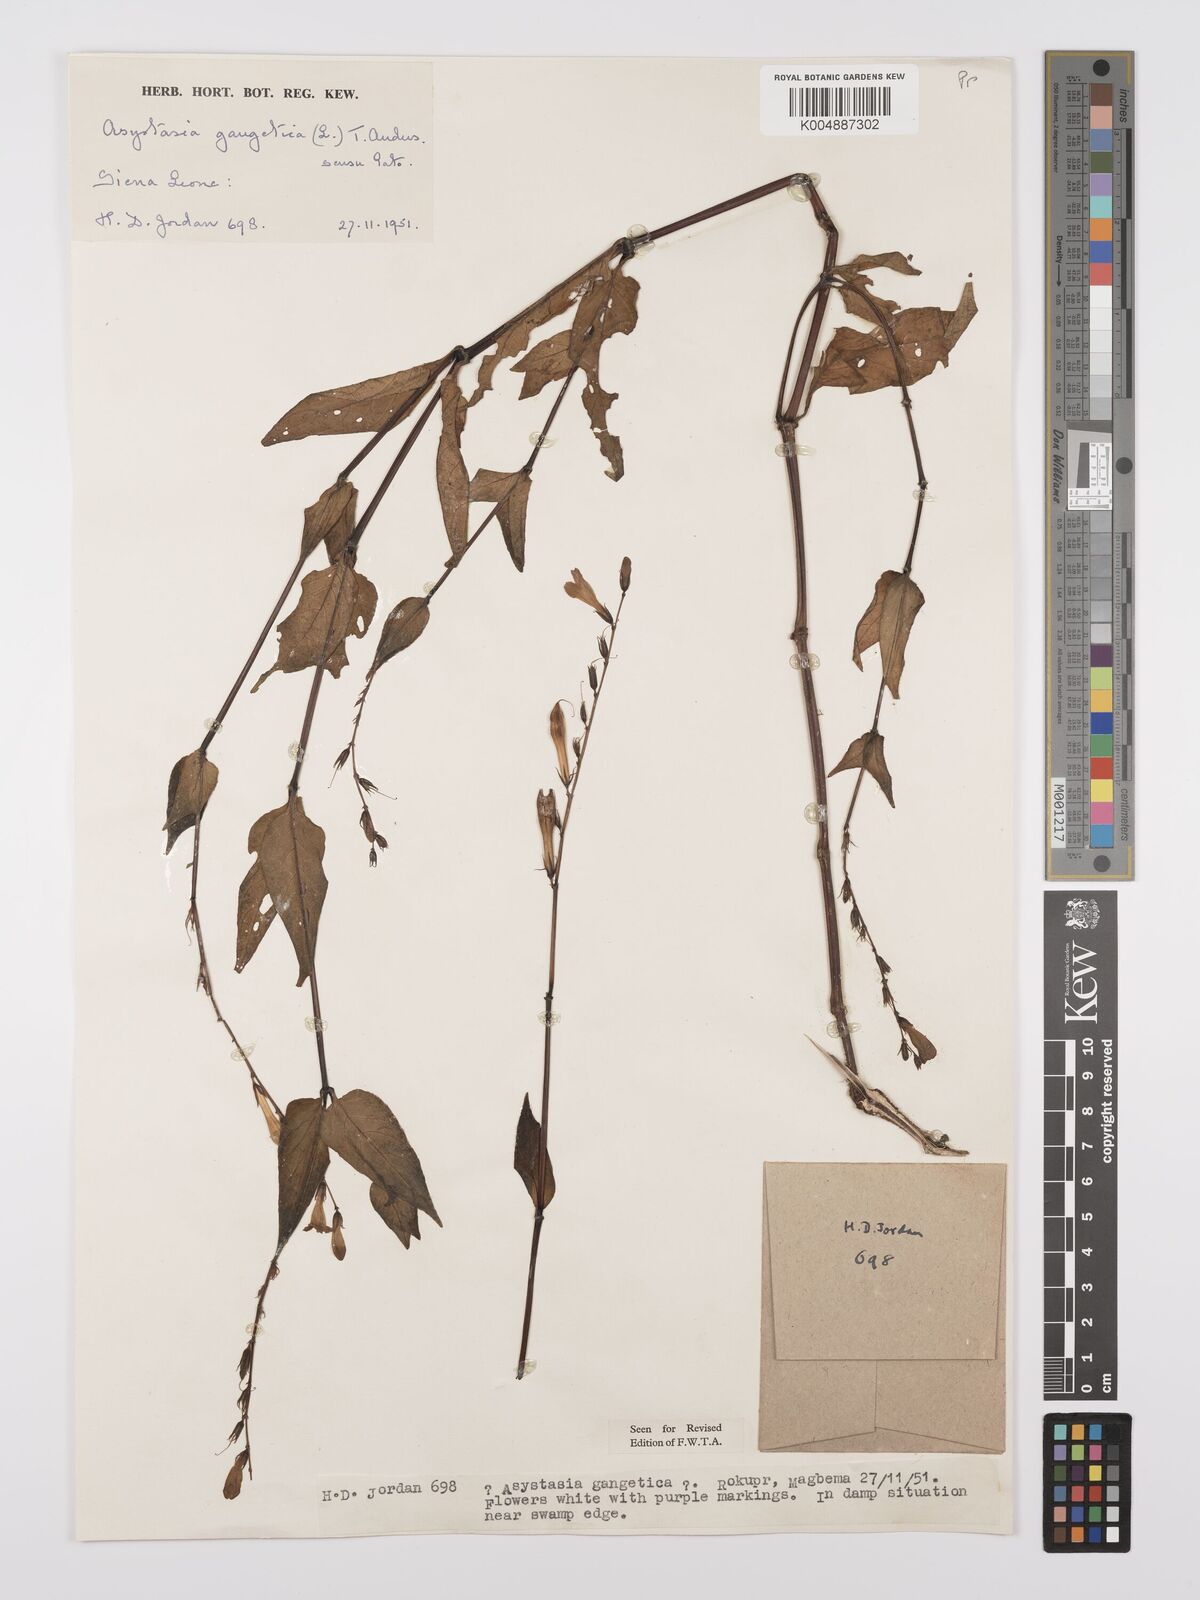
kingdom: Plantae
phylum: Tracheophyta
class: Magnoliopsida
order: Lamiales
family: Acanthaceae
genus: Asystasia
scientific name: Asystasia gangetica
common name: Chinese violet
